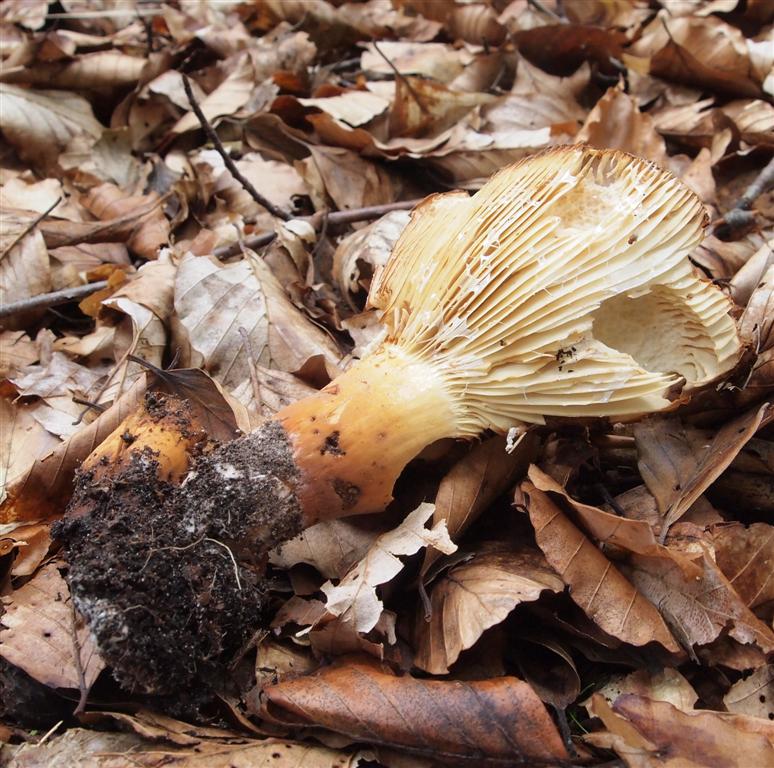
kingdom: Fungi
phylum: Basidiomycota
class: Agaricomycetes
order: Russulales
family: Russulaceae
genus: Lactifluus
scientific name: Lactifluus volemus
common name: spiselig mælkehat
